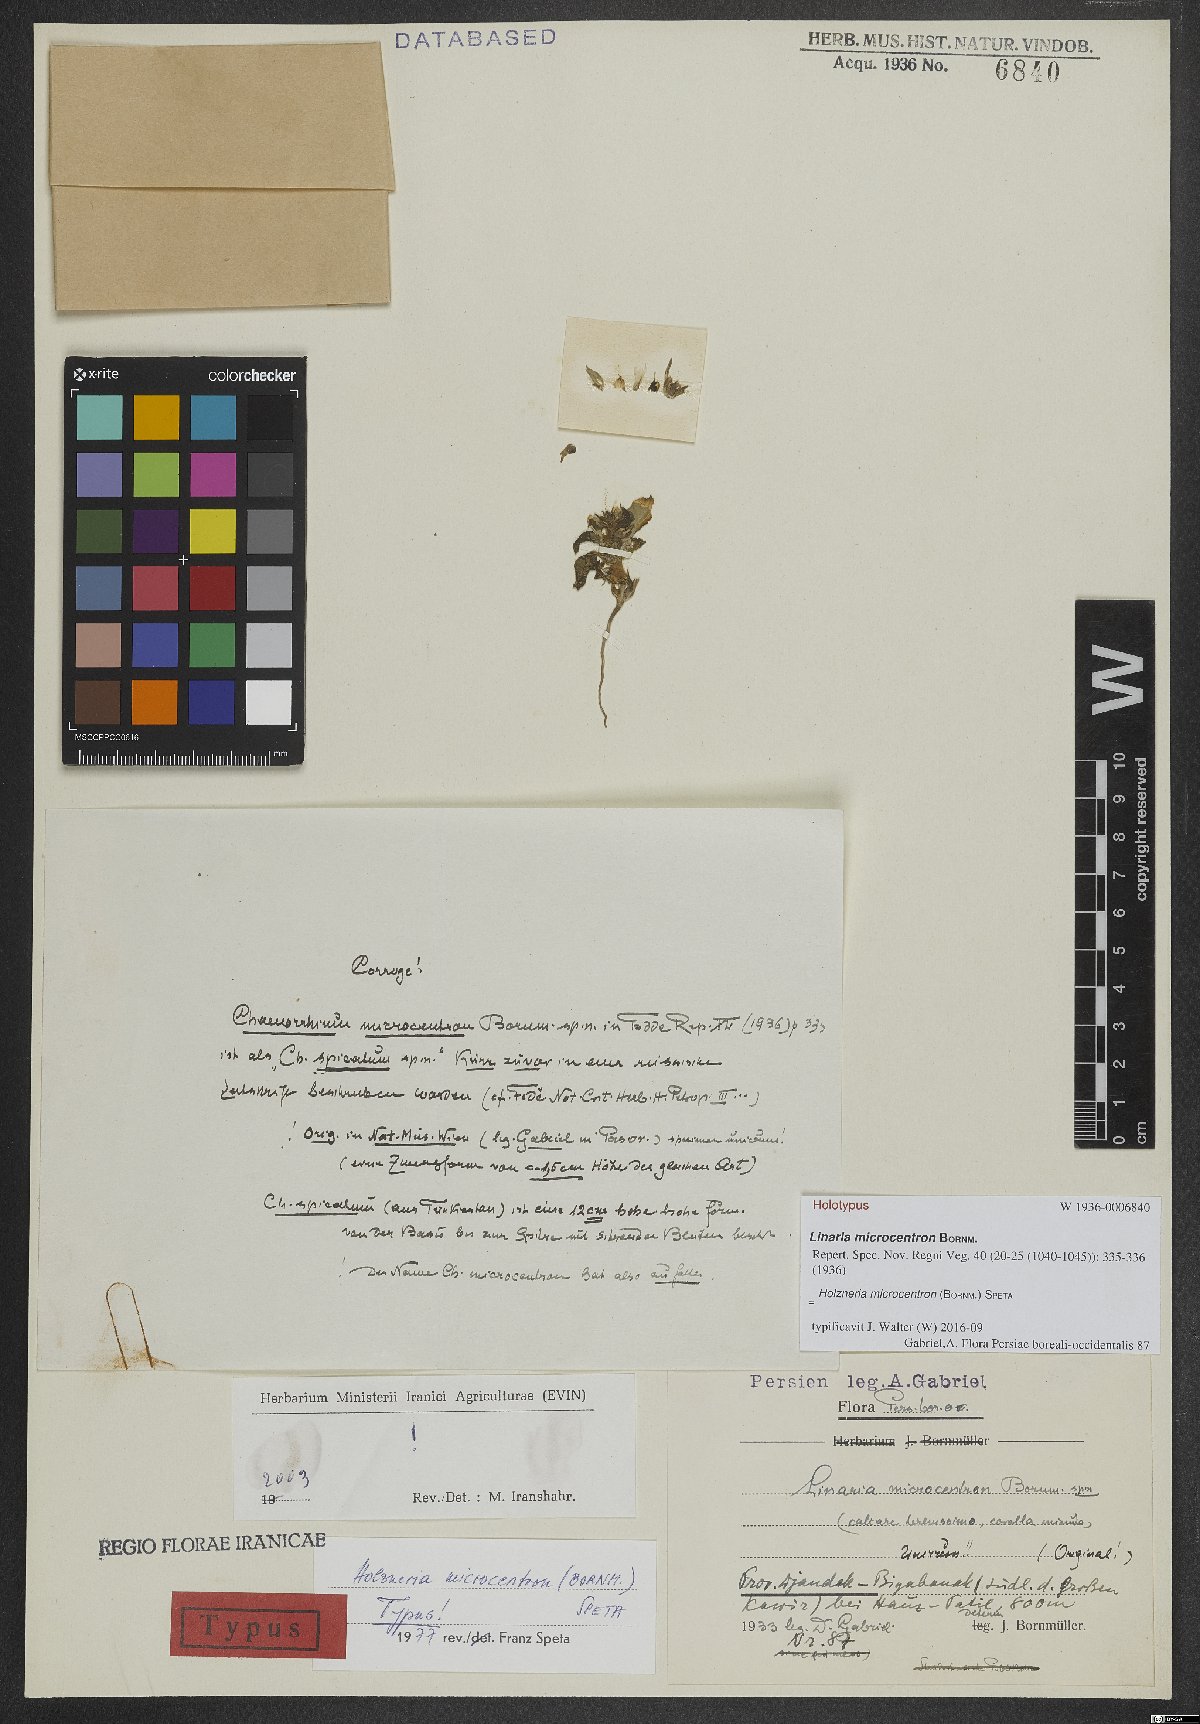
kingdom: Plantae
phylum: Tracheophyta
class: Magnoliopsida
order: Lamiales
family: Plantaginaceae
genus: Holzneria
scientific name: Holzneria microcentron
